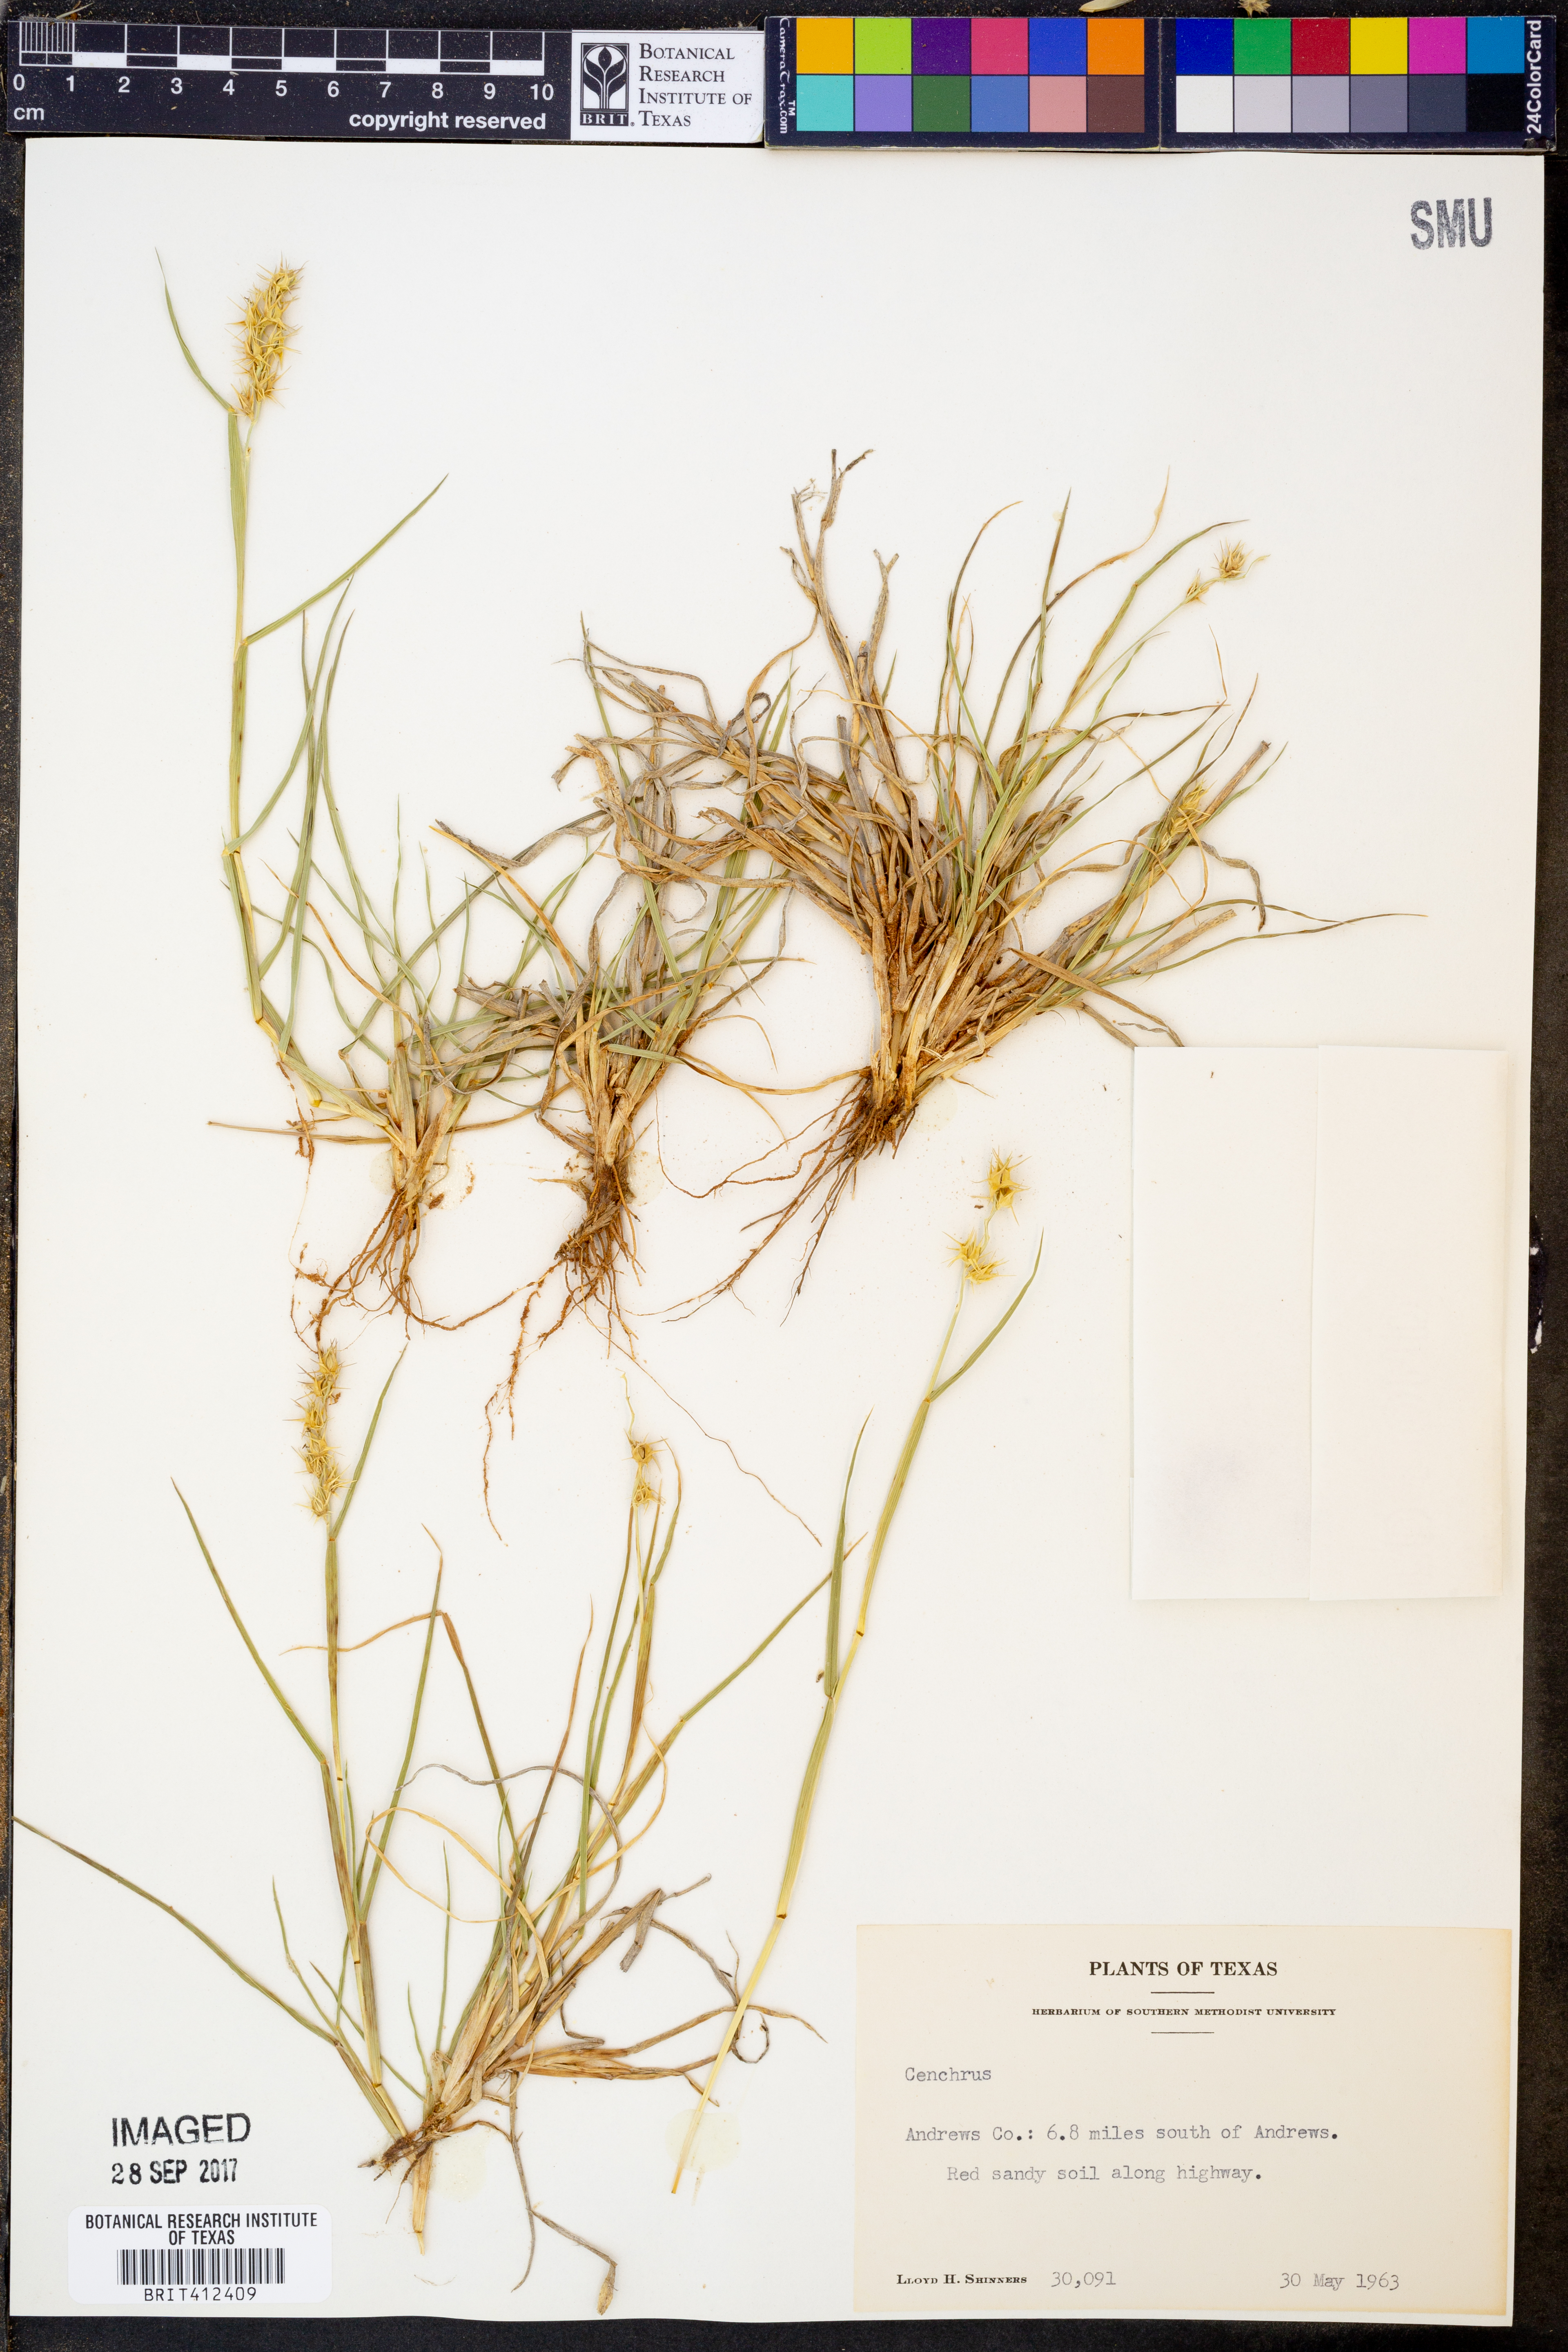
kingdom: Plantae
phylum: Tracheophyta
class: Liliopsida
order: Poales
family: Poaceae
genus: Cenchrus
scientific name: Cenchrus
